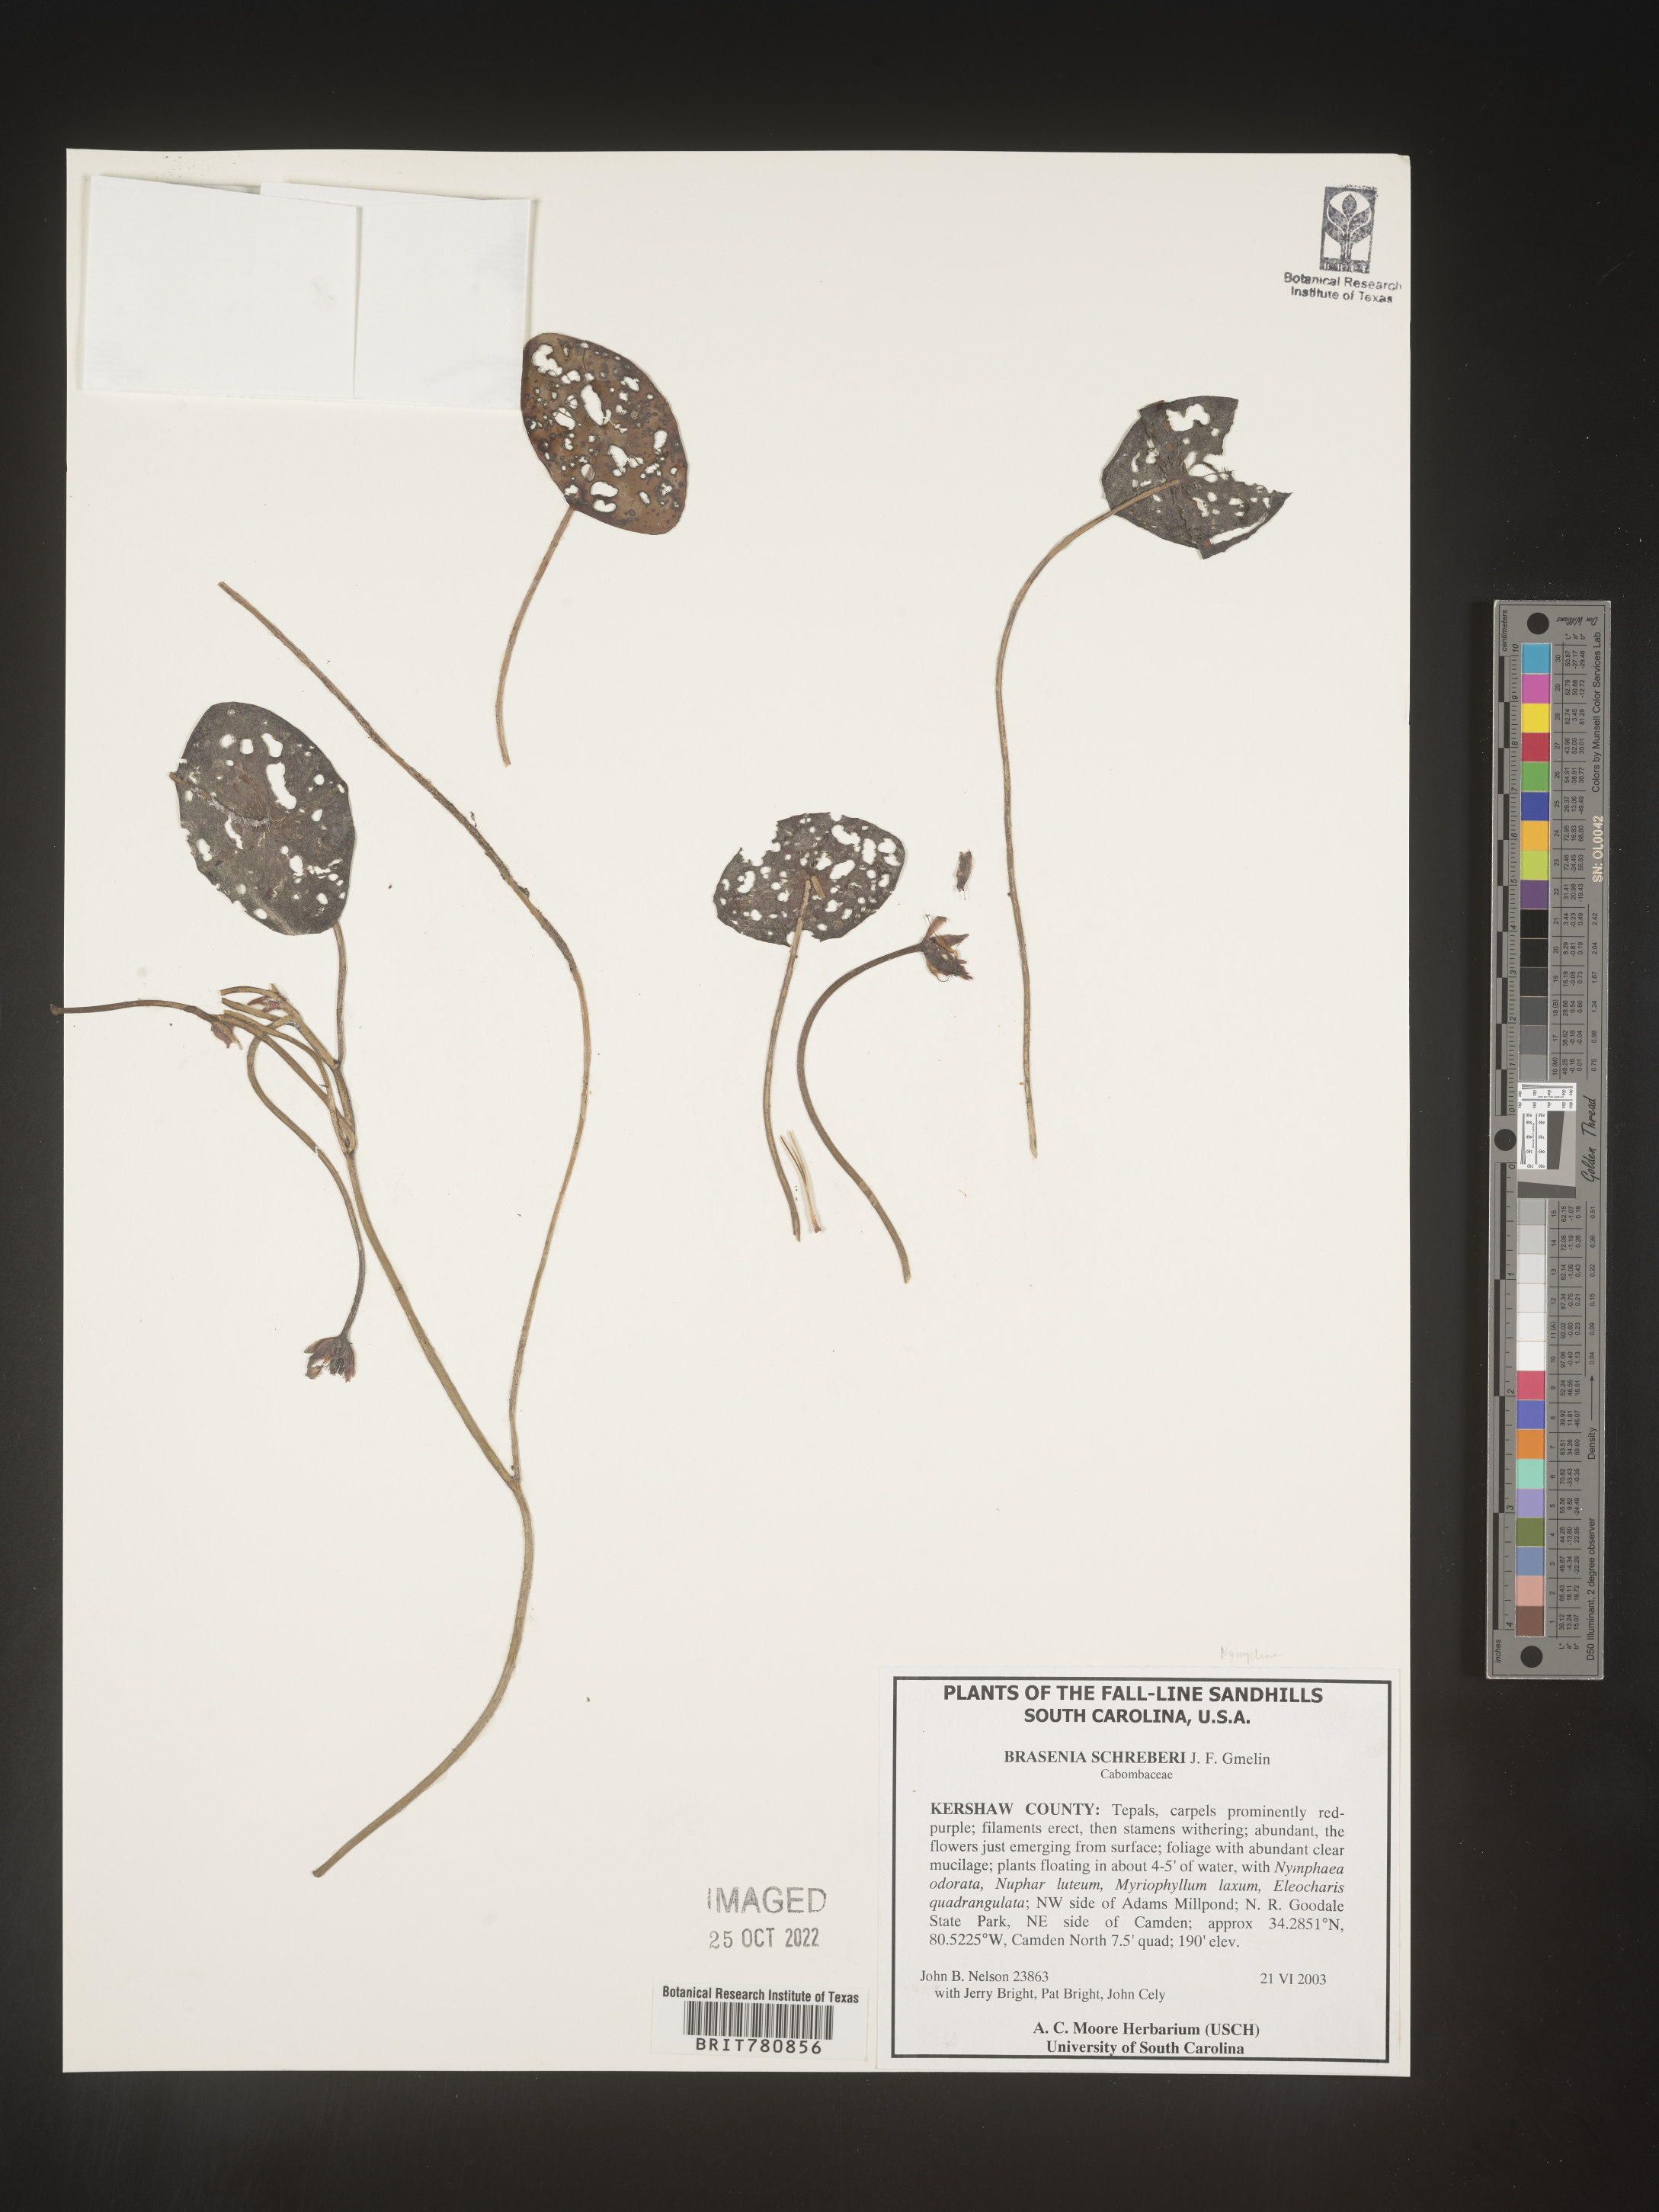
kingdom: Plantae
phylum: Tracheophyta
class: Magnoliopsida
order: Nymphaeales
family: Cabombaceae
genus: Brasenia
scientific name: Brasenia schreberi
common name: Water-shield
